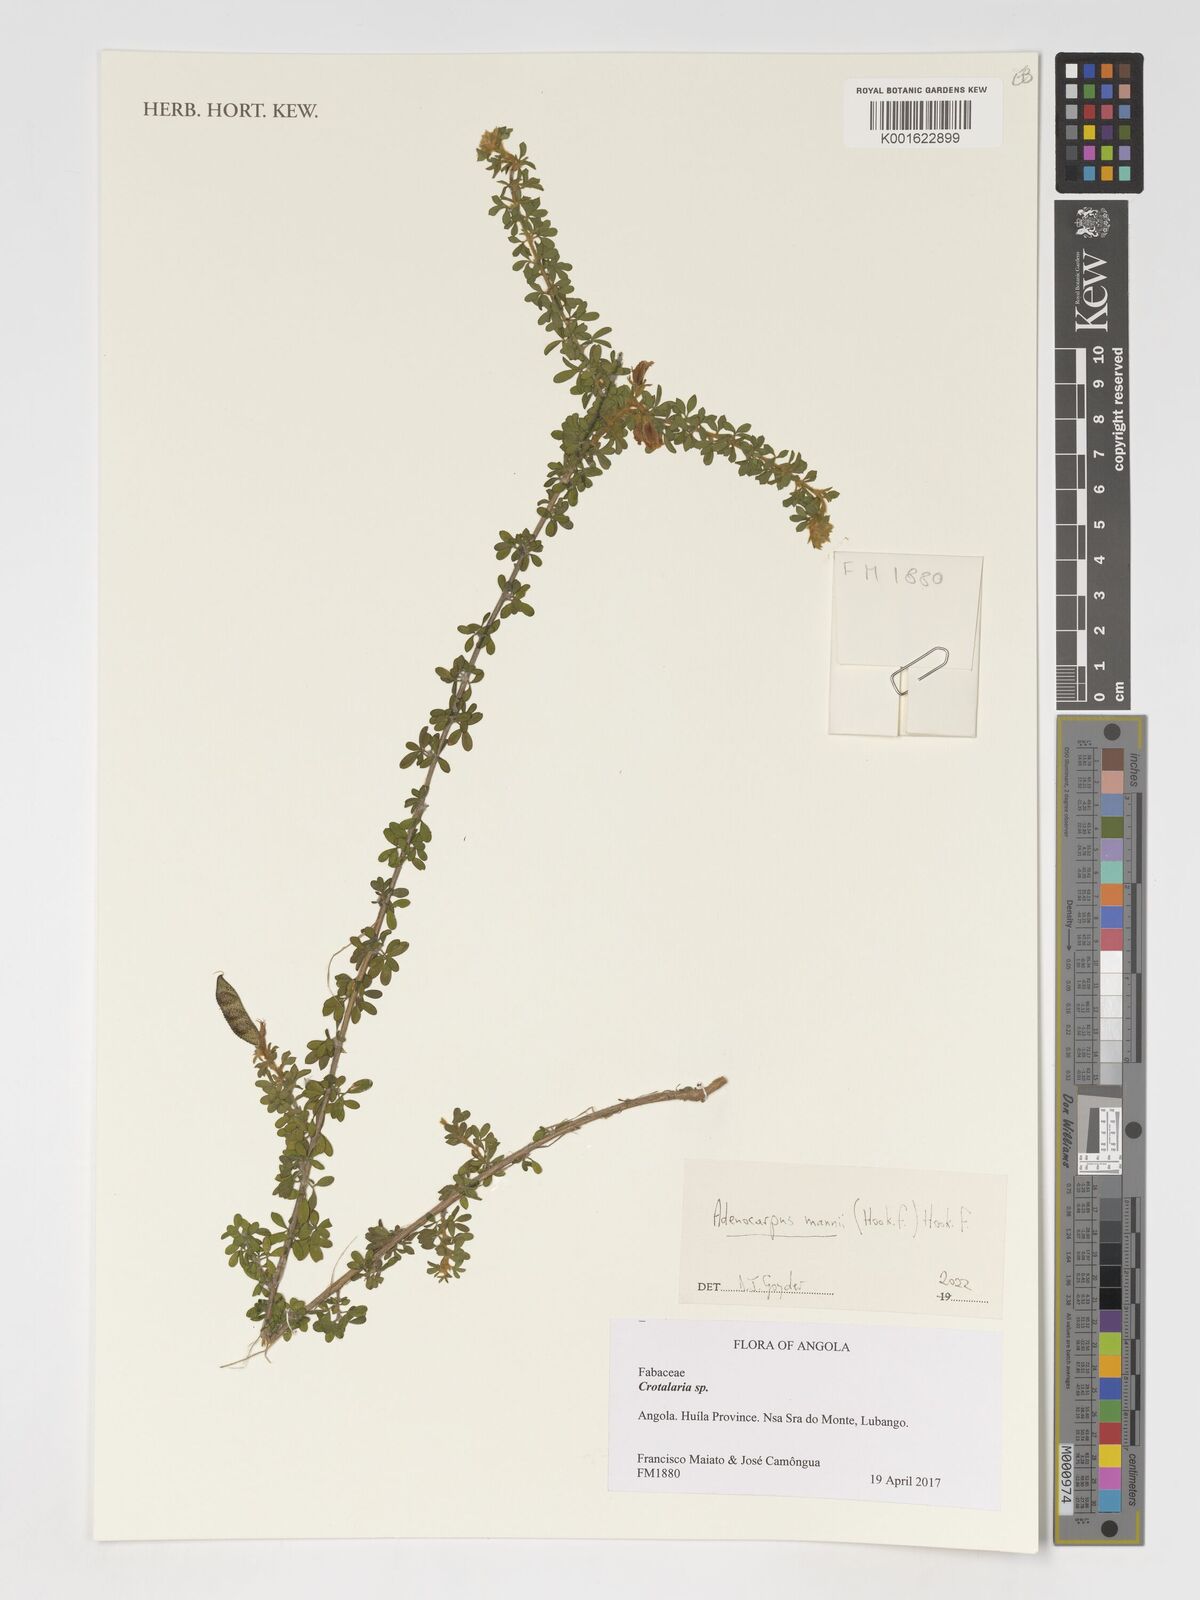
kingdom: Plantae
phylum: Tracheophyta
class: Magnoliopsida
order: Fabales
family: Fabaceae
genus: Adenocarpus
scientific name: Adenocarpus mannii
